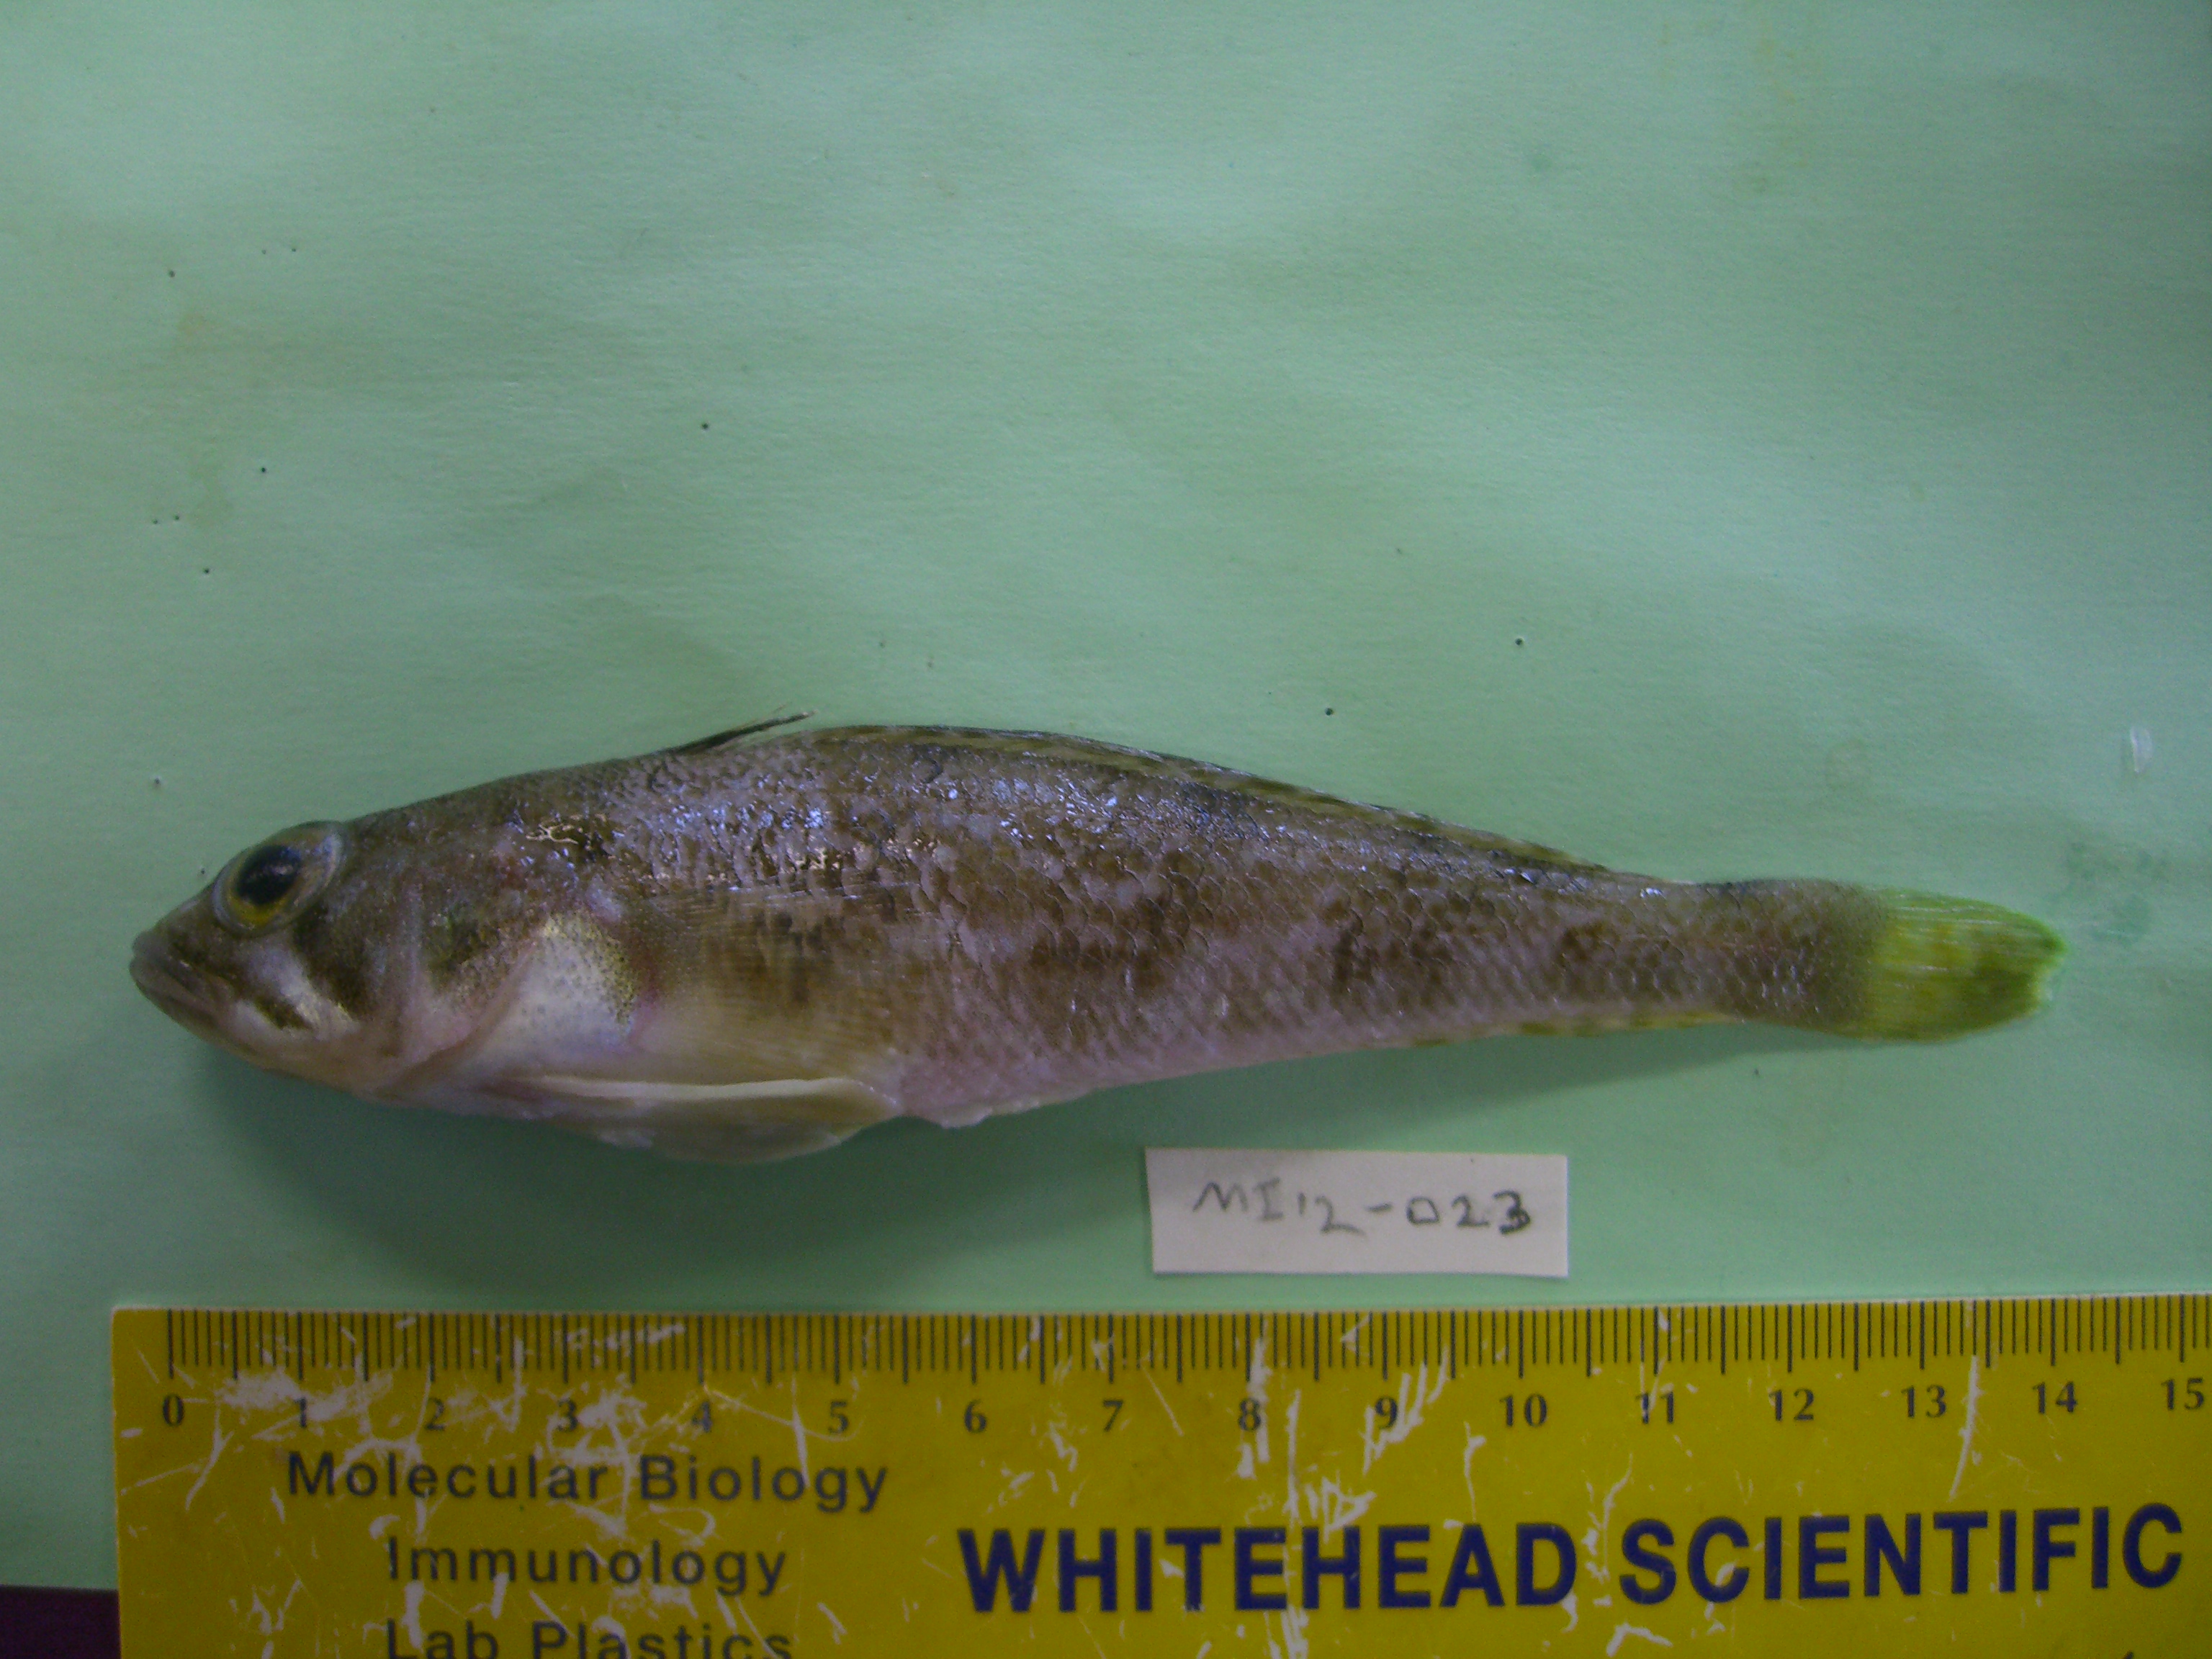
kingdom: Animalia
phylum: Chordata
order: Perciformes
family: Nototheniidae
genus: Lepidonotothen
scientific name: Lepidonotothen squamifrons
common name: Grey notothen
